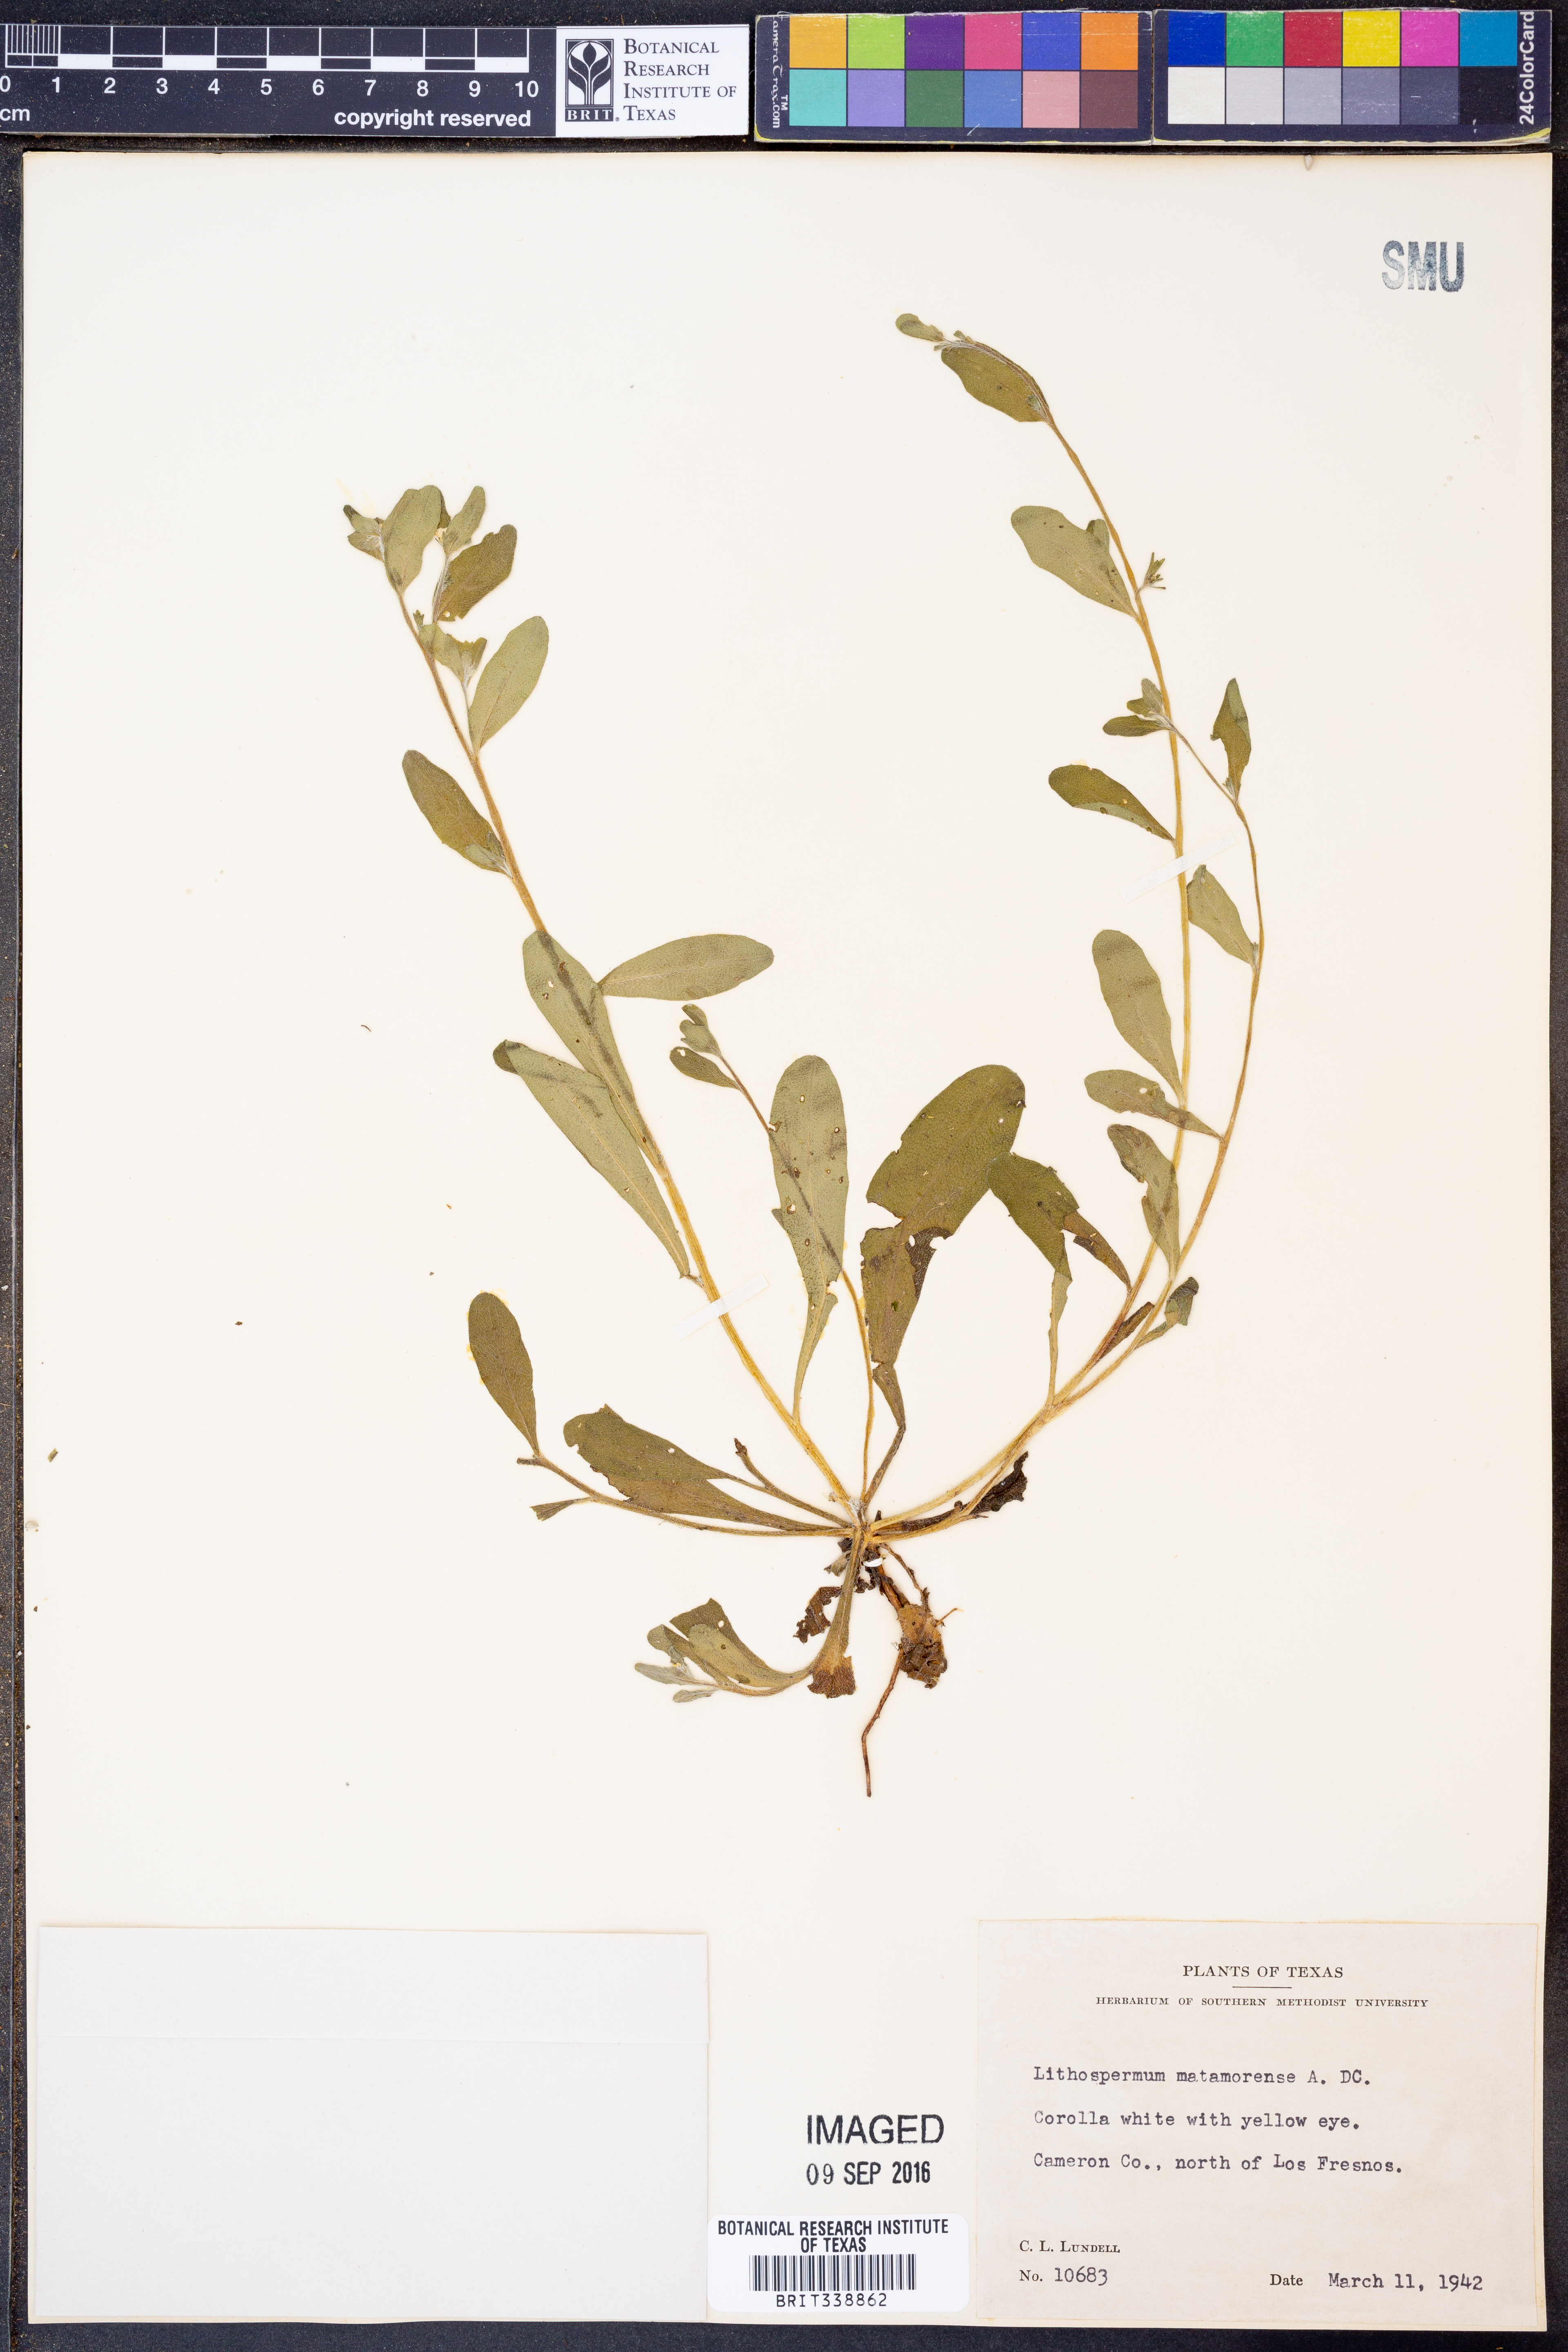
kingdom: Plantae
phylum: Tracheophyta
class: Magnoliopsida
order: Boraginales
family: Boraginaceae
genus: Lithospermum
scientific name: Lithospermum matamorense
